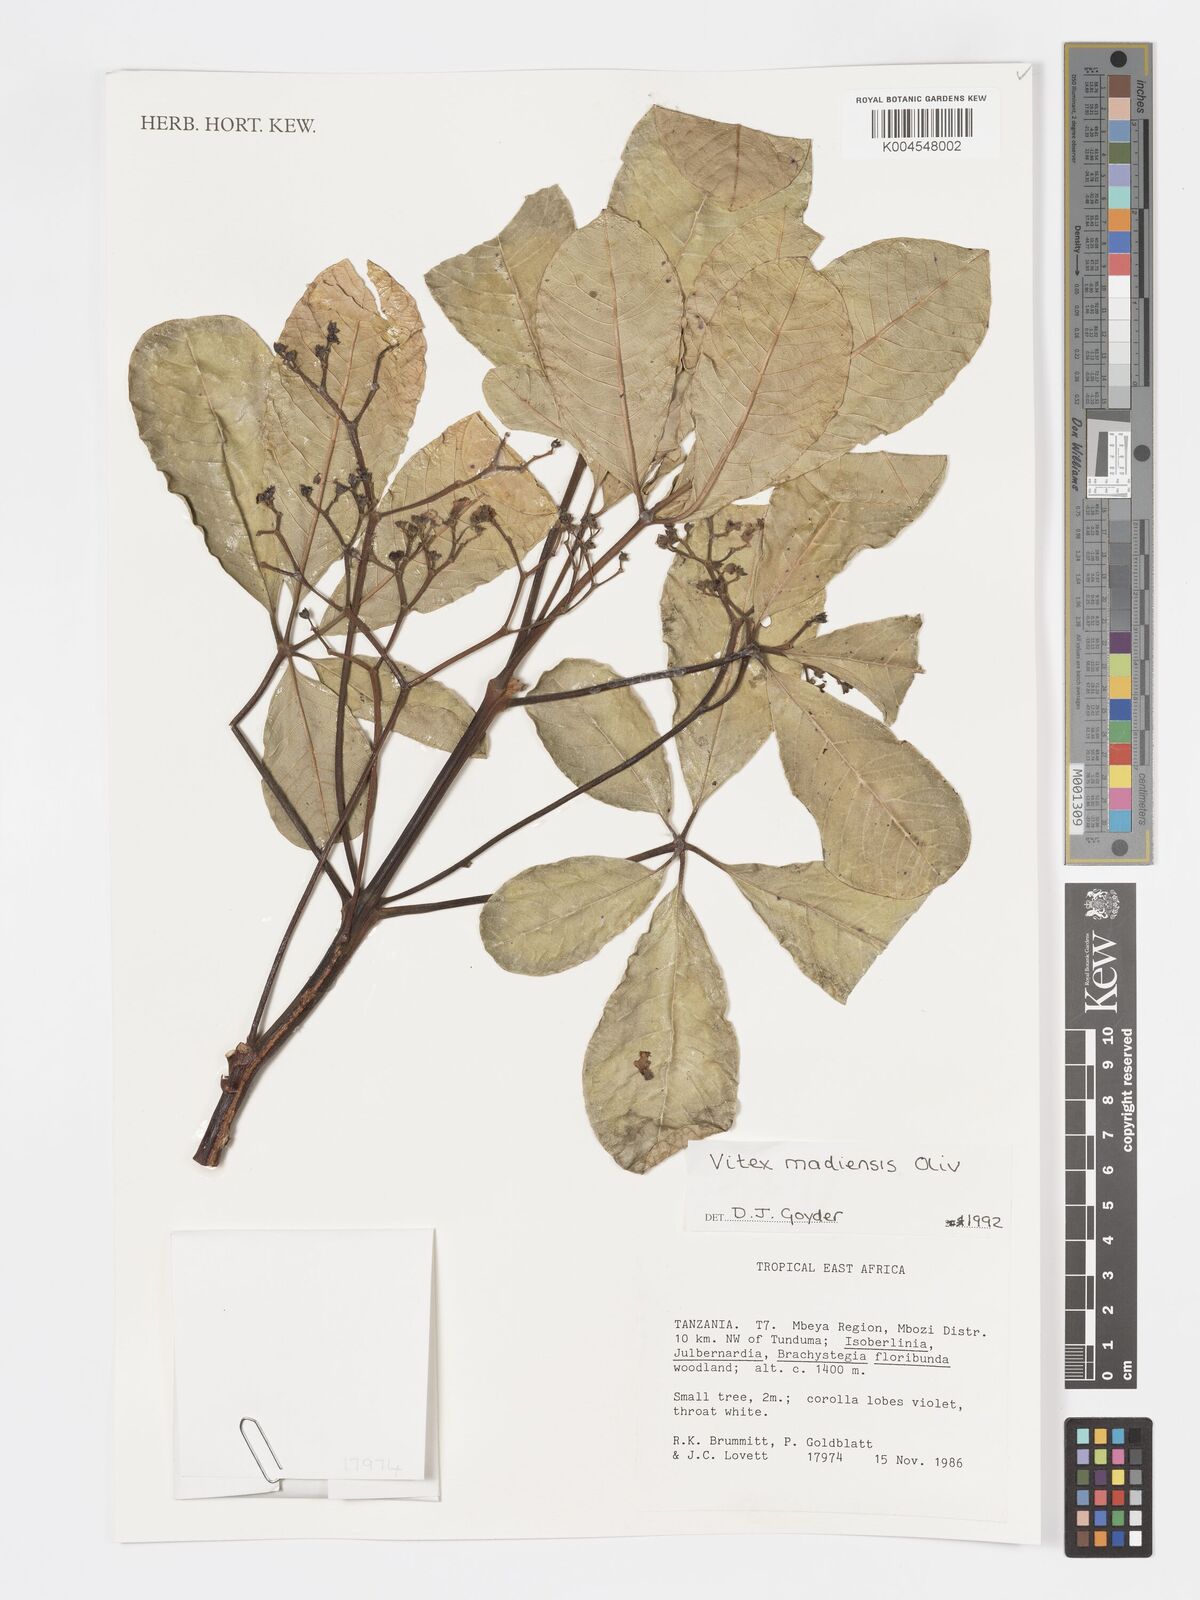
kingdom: Plantae
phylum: Tracheophyta
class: Magnoliopsida
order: Lamiales
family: Lamiaceae
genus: Vitex
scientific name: Vitex madiensis
